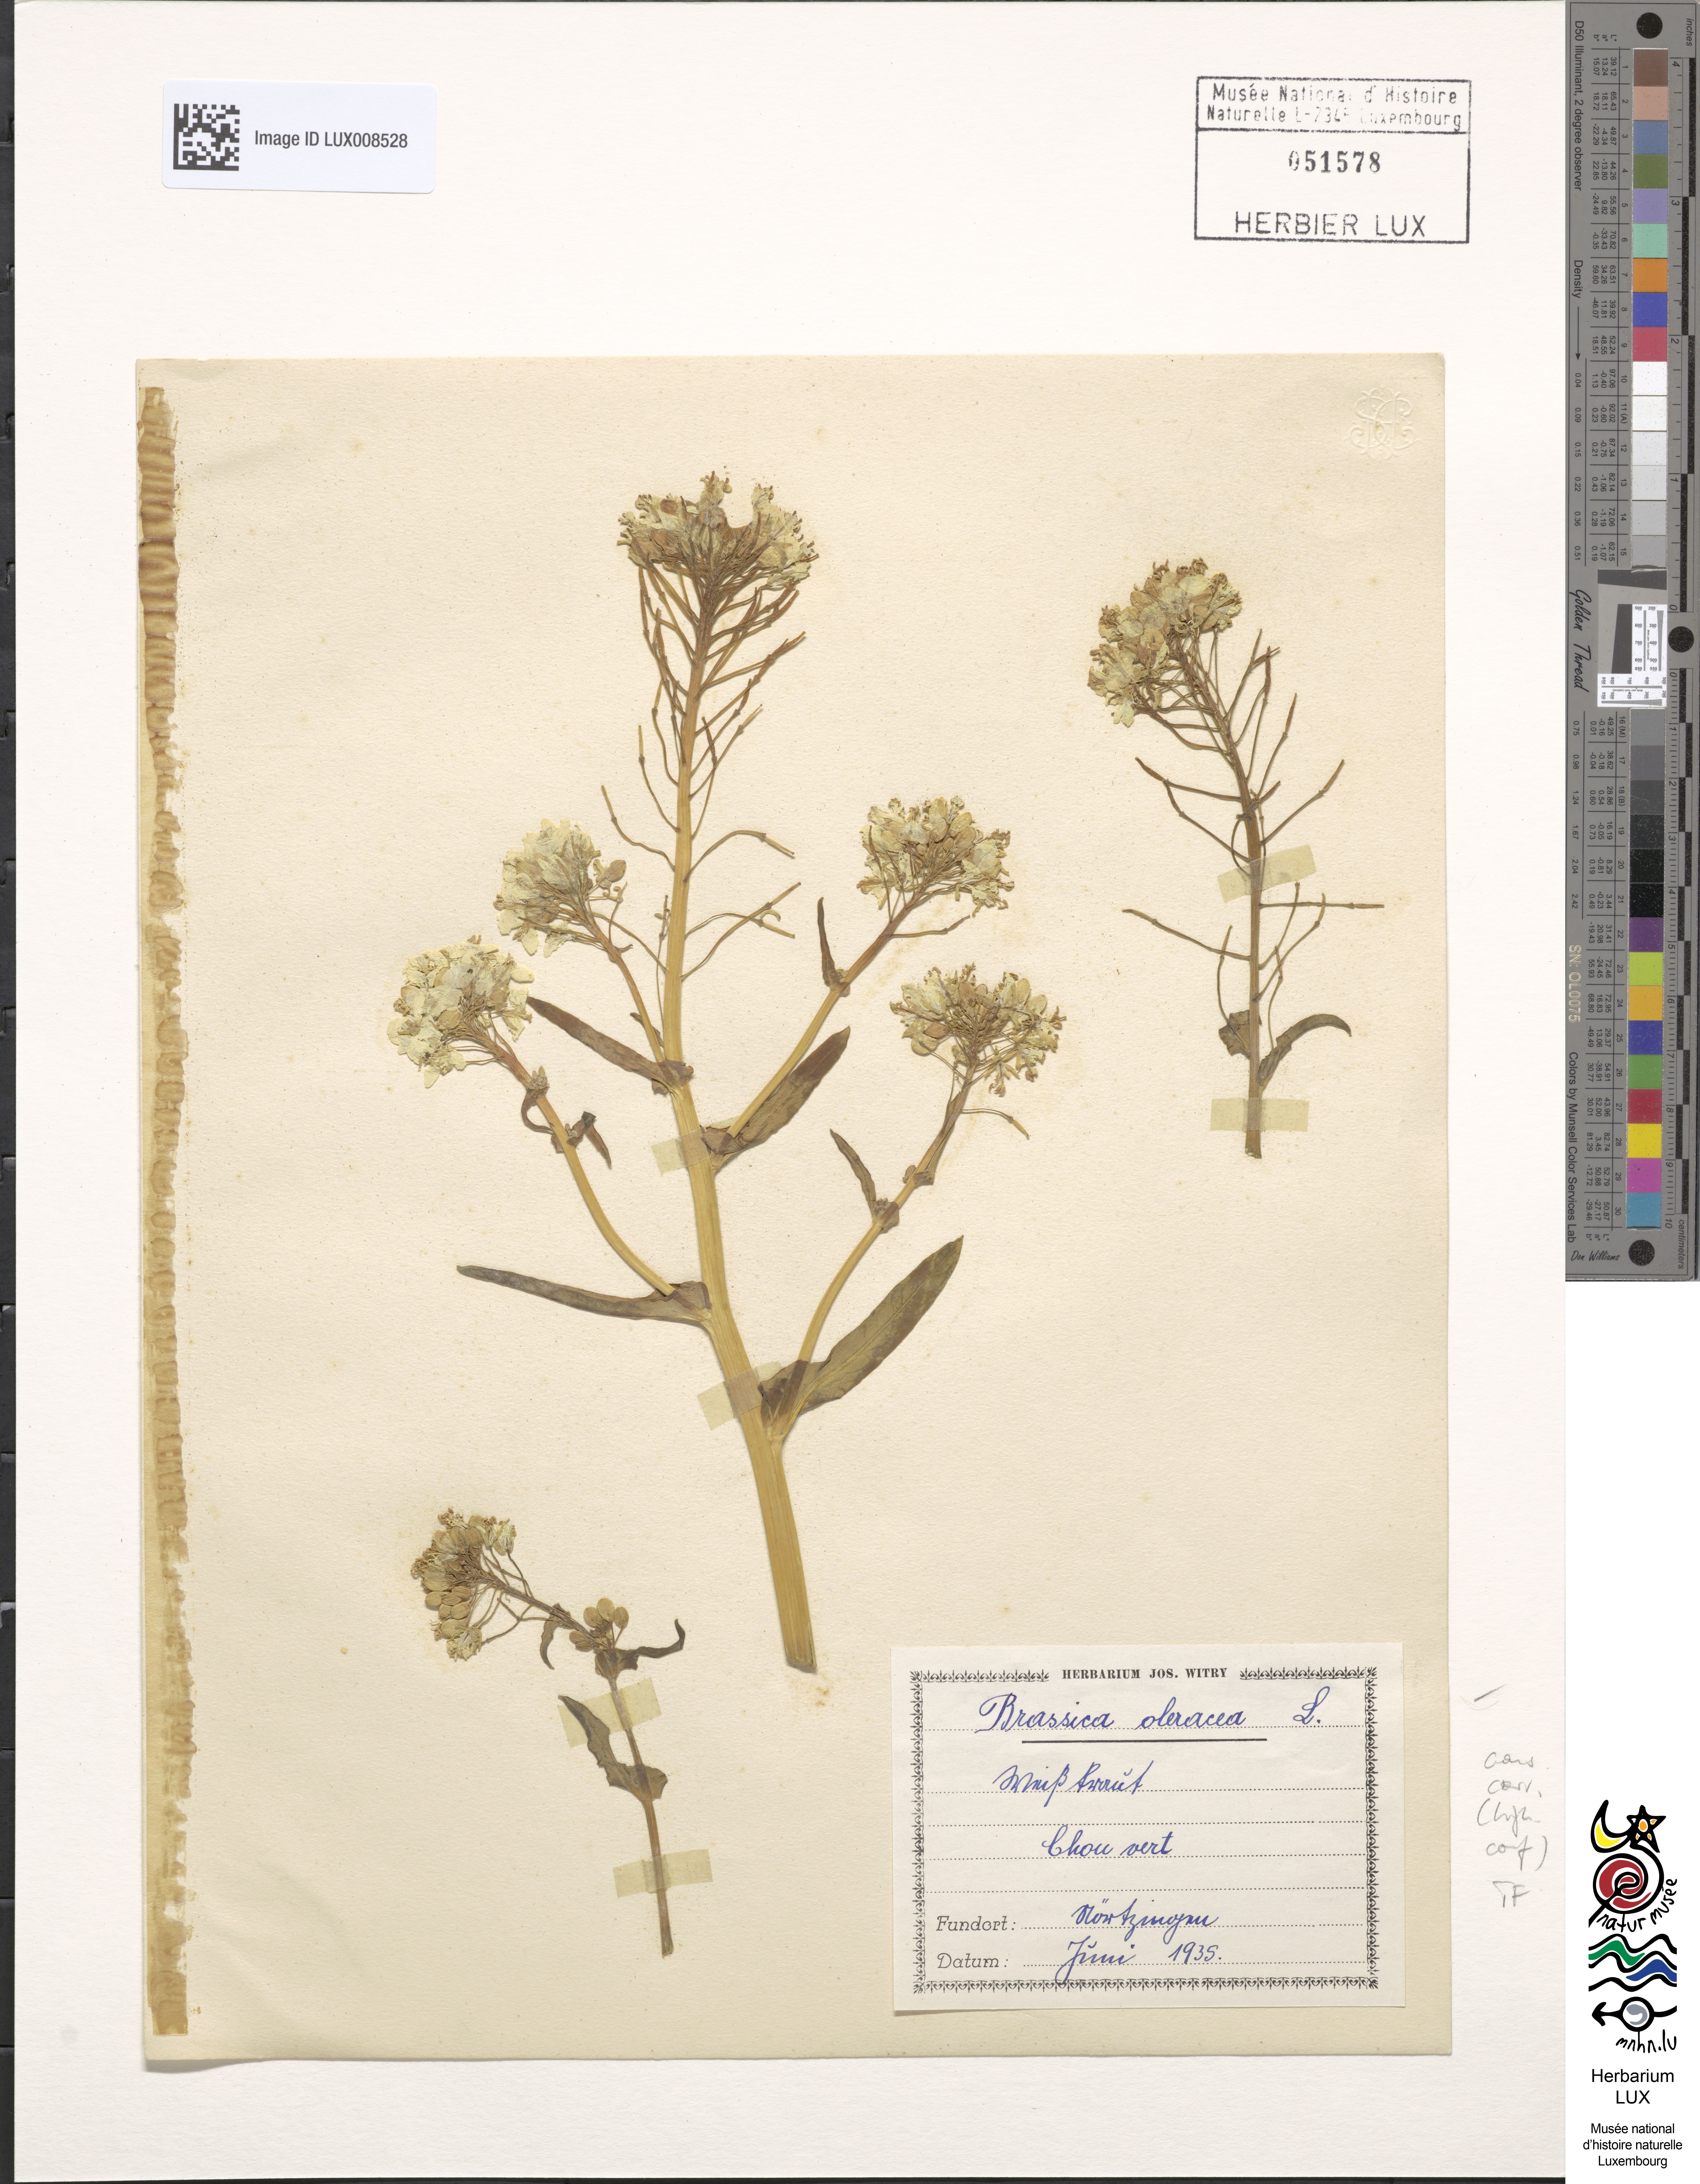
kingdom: Plantae
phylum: Tracheophyta
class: Magnoliopsida
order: Brassicales
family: Brassicaceae
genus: Brassica
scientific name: Brassica oleracea
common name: Cabbage
